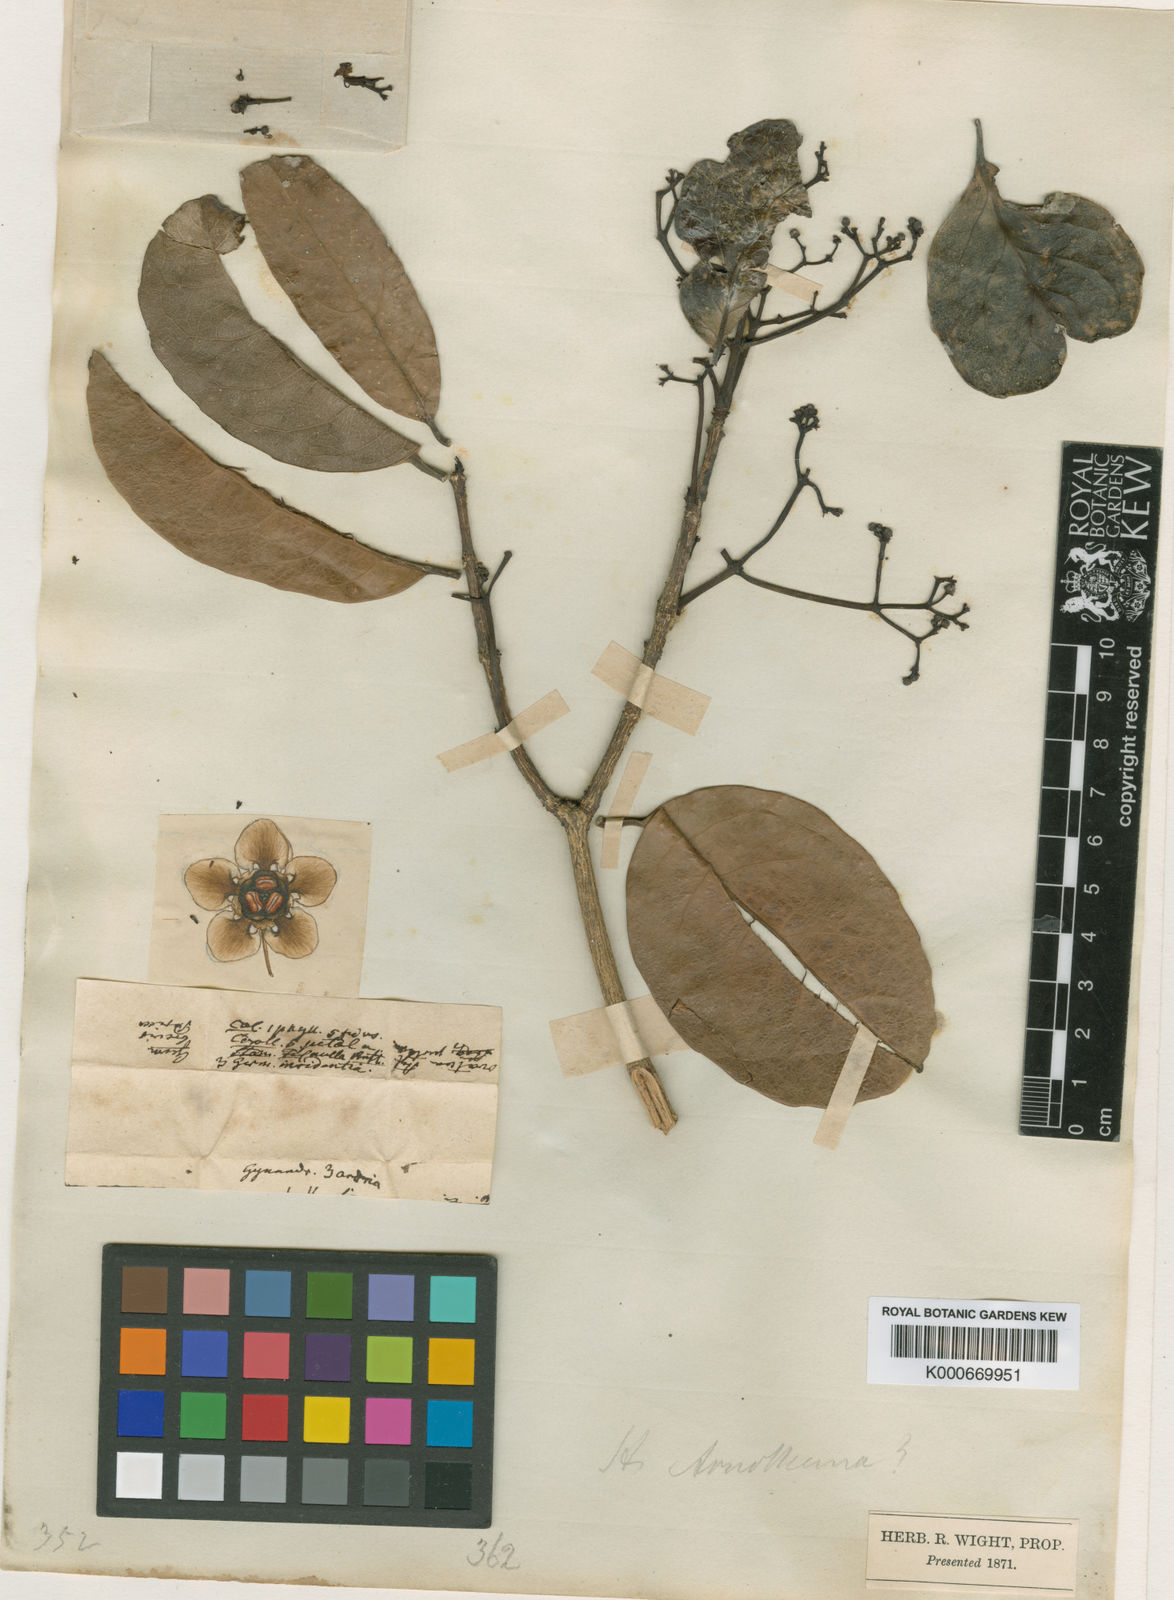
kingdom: Plantae
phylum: Tracheophyta
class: Magnoliopsida
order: Celastrales
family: Celastraceae
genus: Pristimera
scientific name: Pristimera arnottiana
